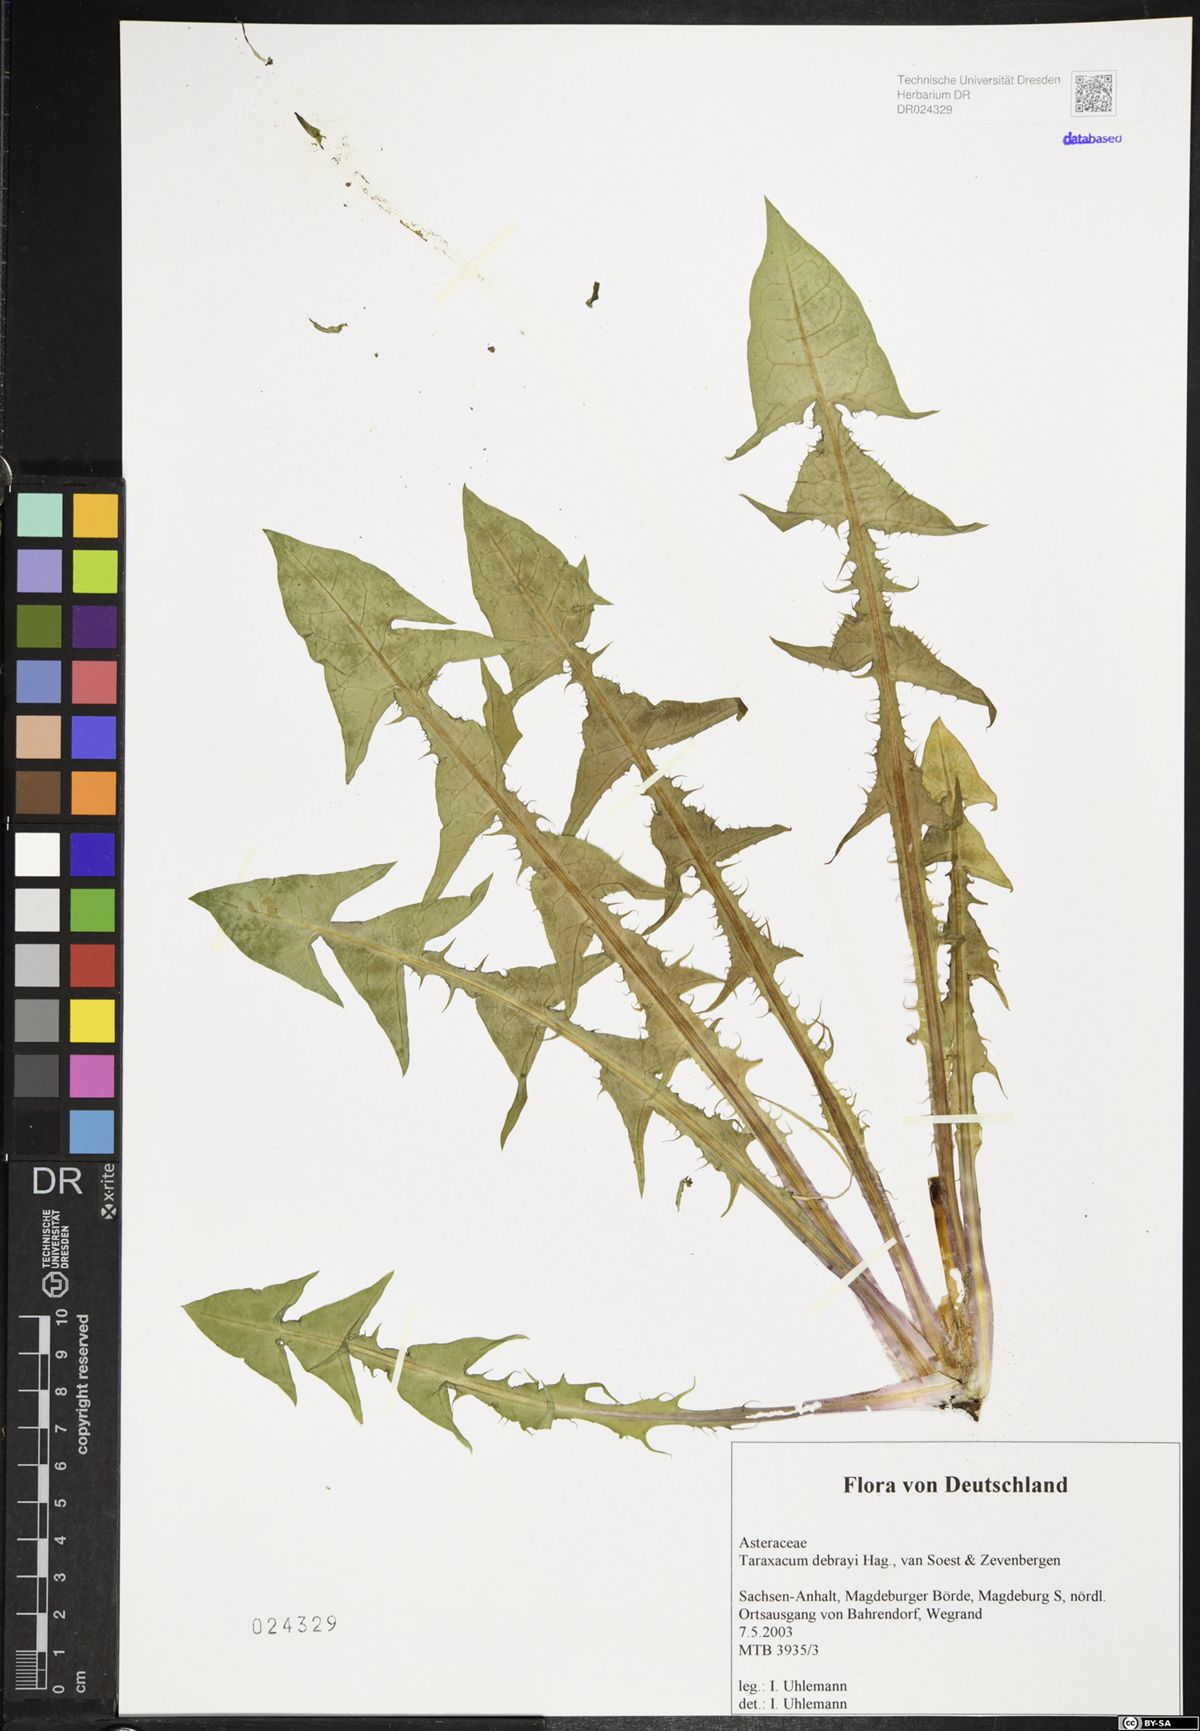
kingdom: Plantae
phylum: Tracheophyta
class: Magnoliopsida
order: Asterales
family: Asteraceae
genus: Taraxacum
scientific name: Taraxacum debrayi
